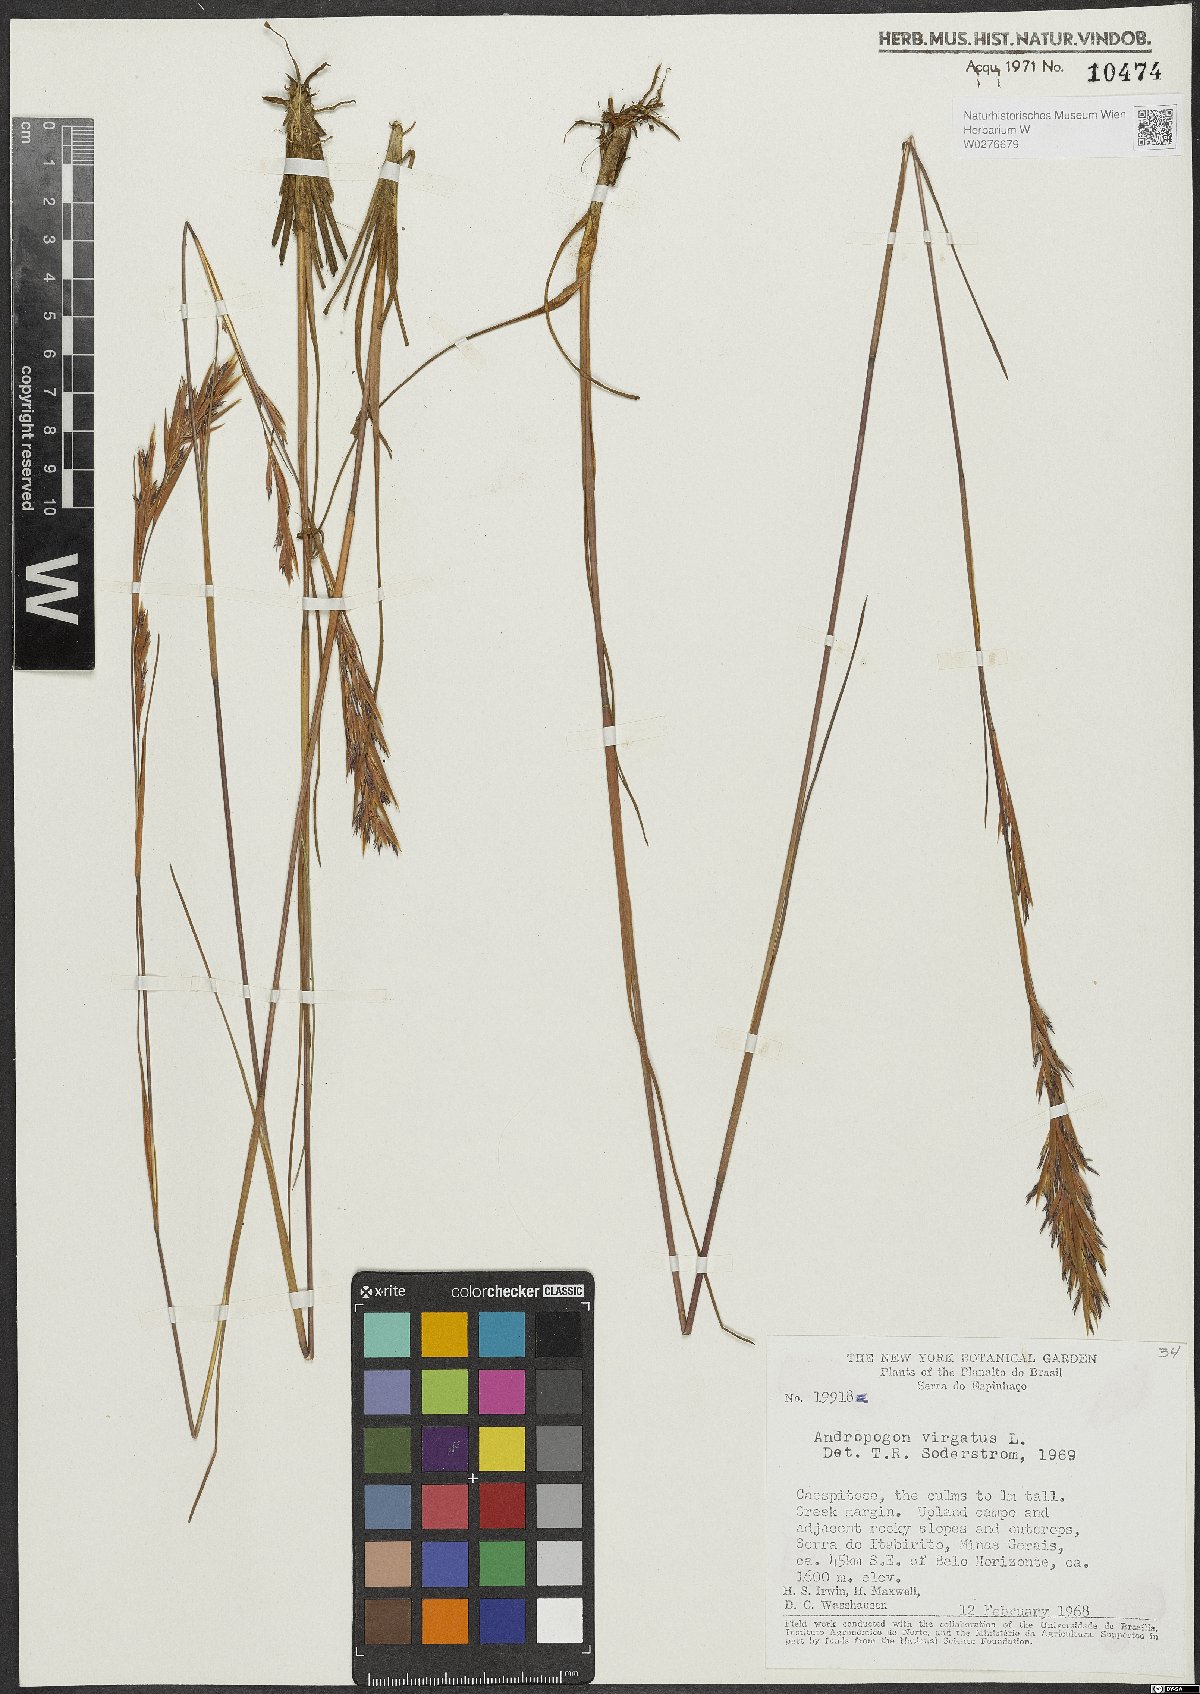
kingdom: Plantae
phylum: Tracheophyta
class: Liliopsida
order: Poales
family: Poaceae
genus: Andropogon
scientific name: Andropogon virgatus
